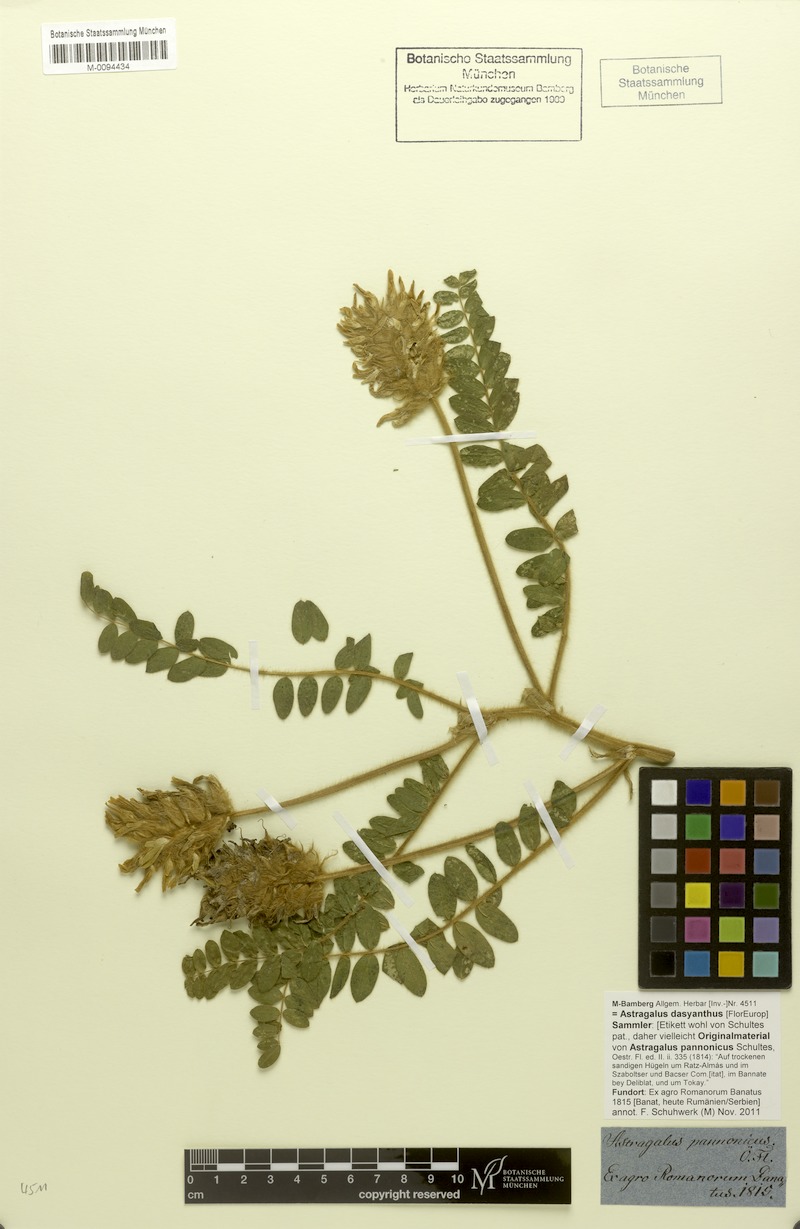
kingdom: Plantae
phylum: Tracheophyta
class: Magnoliopsida
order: Fabales
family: Fabaceae
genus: Astragalus
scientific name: Astragalus dasyanthus
